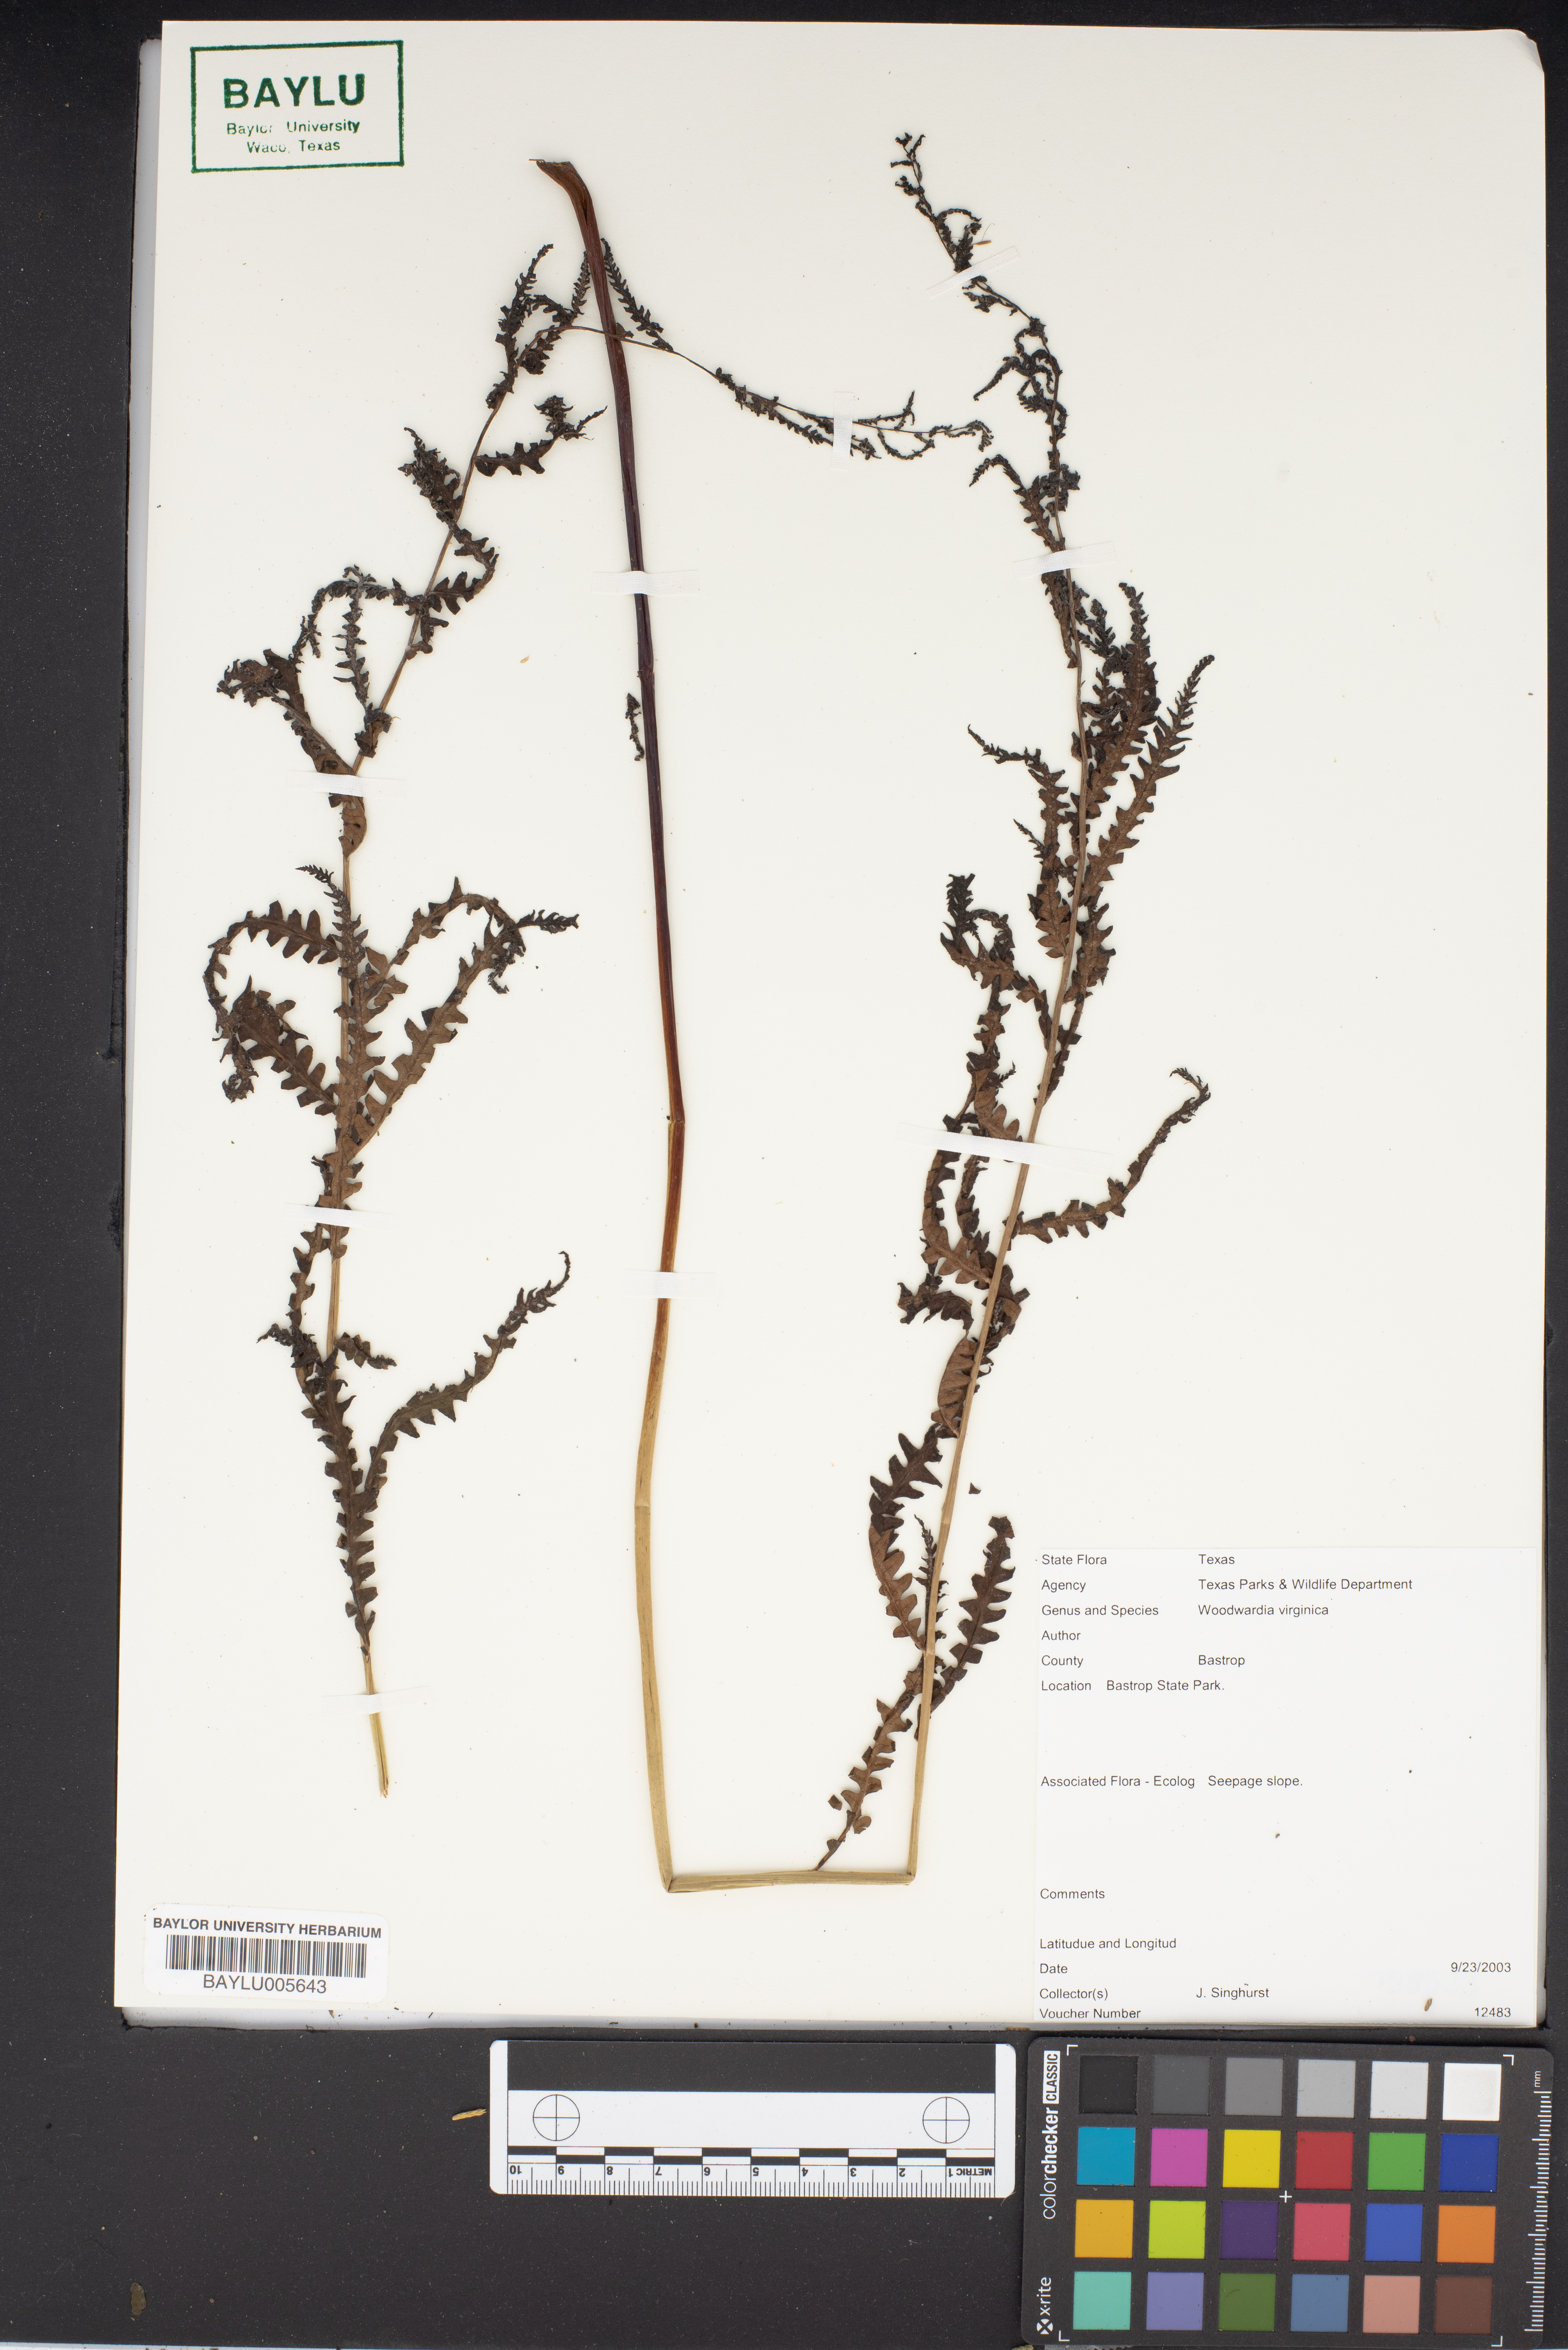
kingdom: Plantae
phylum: Tracheophyta
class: Polypodiopsida
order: Polypodiales
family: Blechnaceae
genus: Anchistea
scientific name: Anchistea virginica
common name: Virginia chain fern
